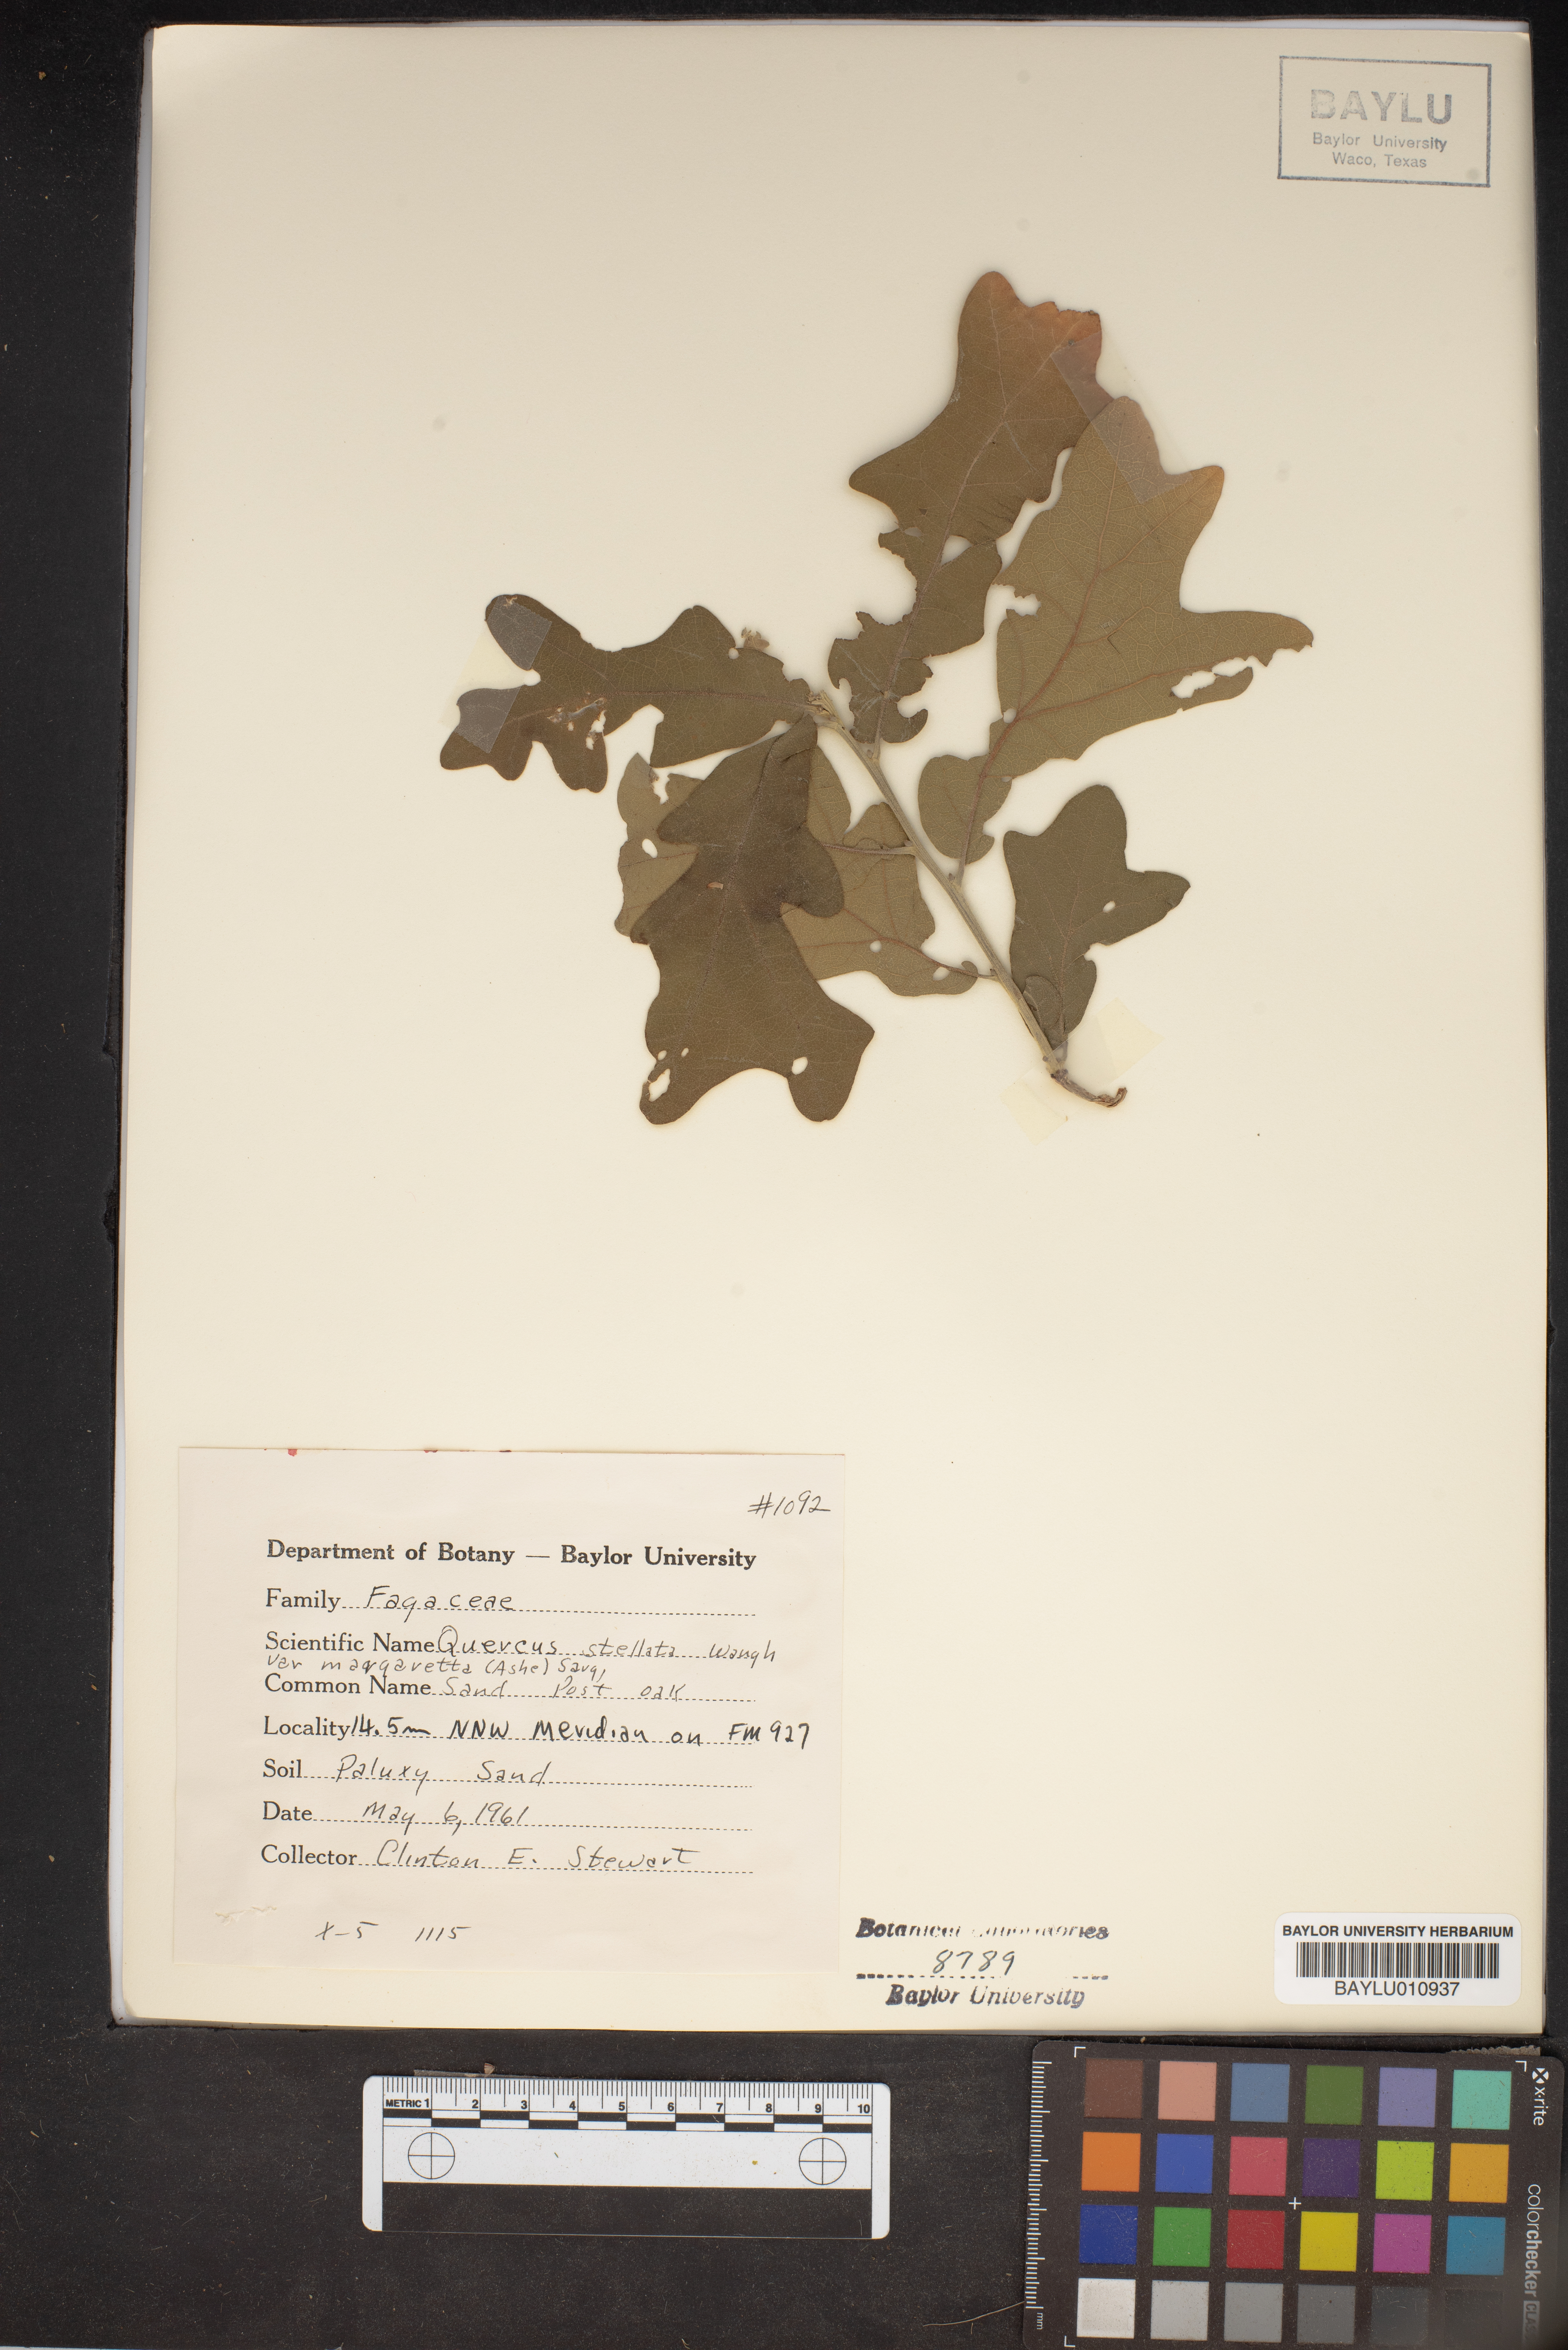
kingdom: Plantae
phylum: Tracheophyta
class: Magnoliopsida
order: Fagales
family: Fagaceae
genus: Quercus
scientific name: Quercus stellata
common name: Post oak
